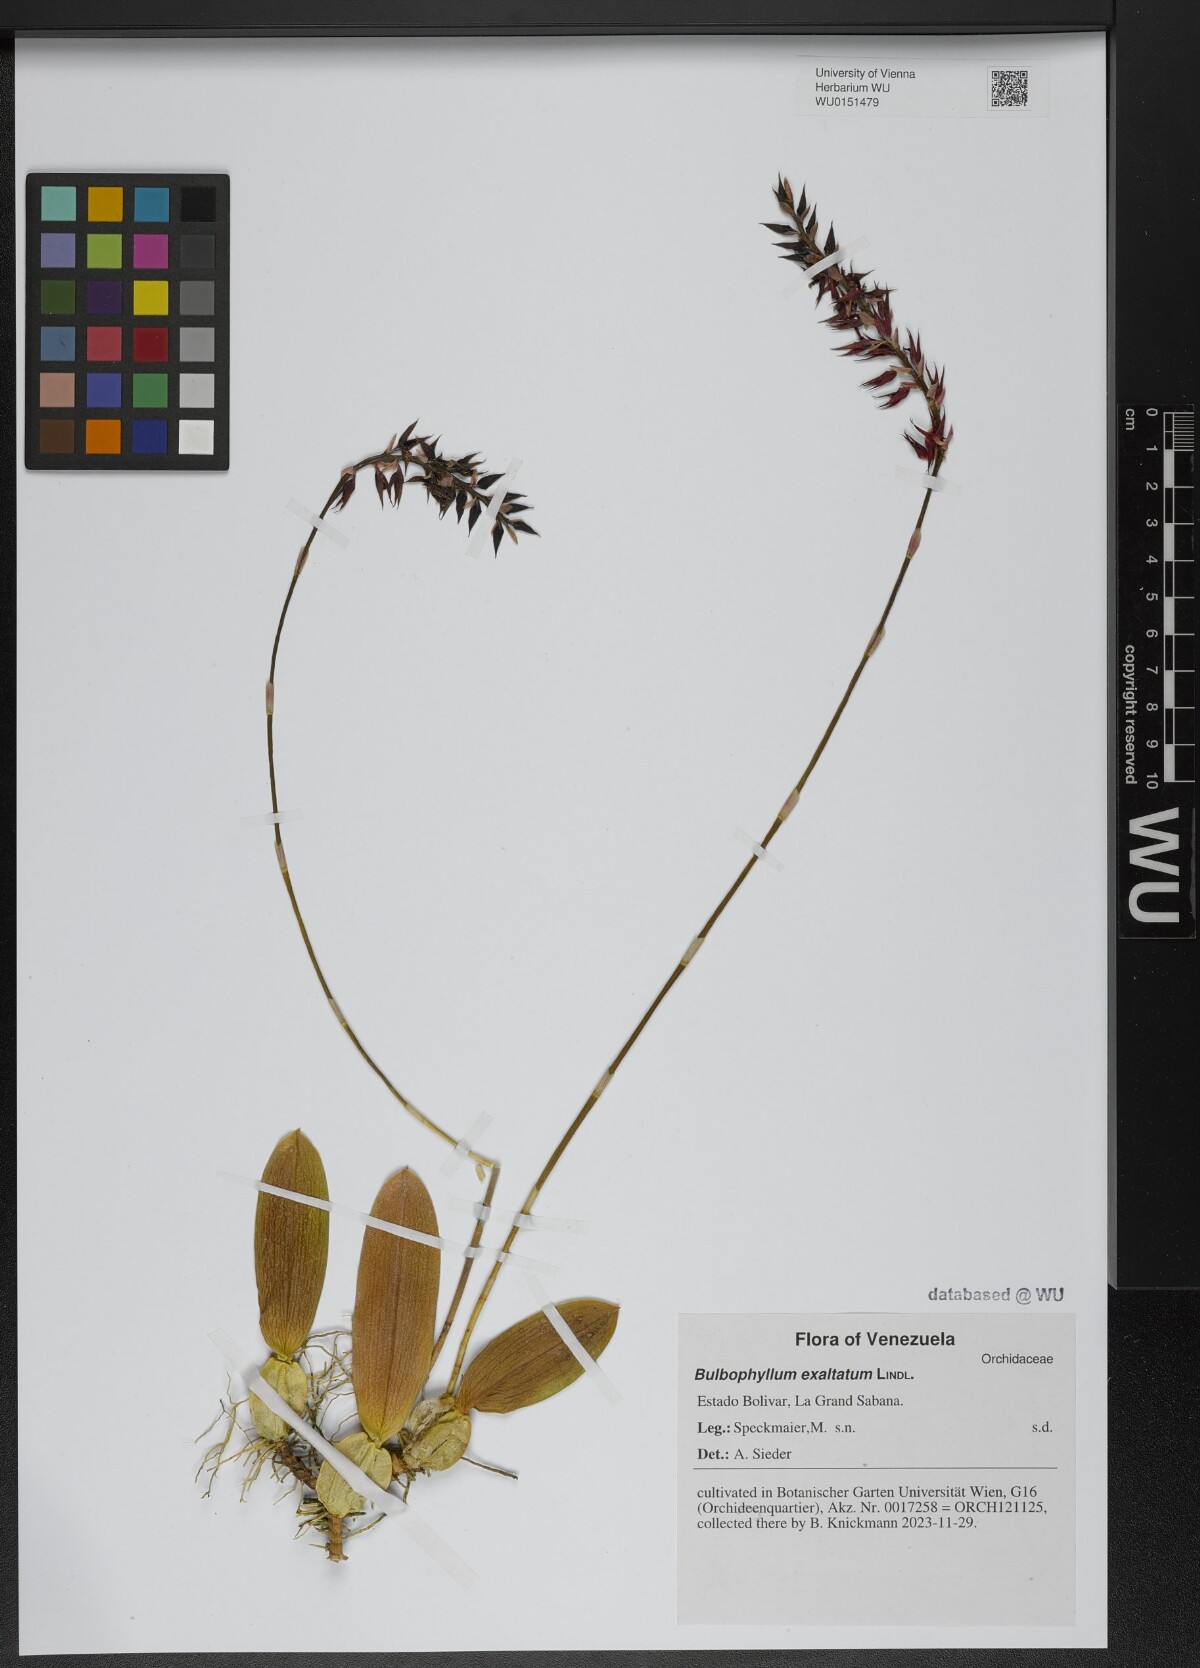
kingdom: Plantae
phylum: Tracheophyta
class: Liliopsida
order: Asparagales
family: Orchidaceae
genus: Bulbophyllum
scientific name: Bulbophyllum exaltatum
